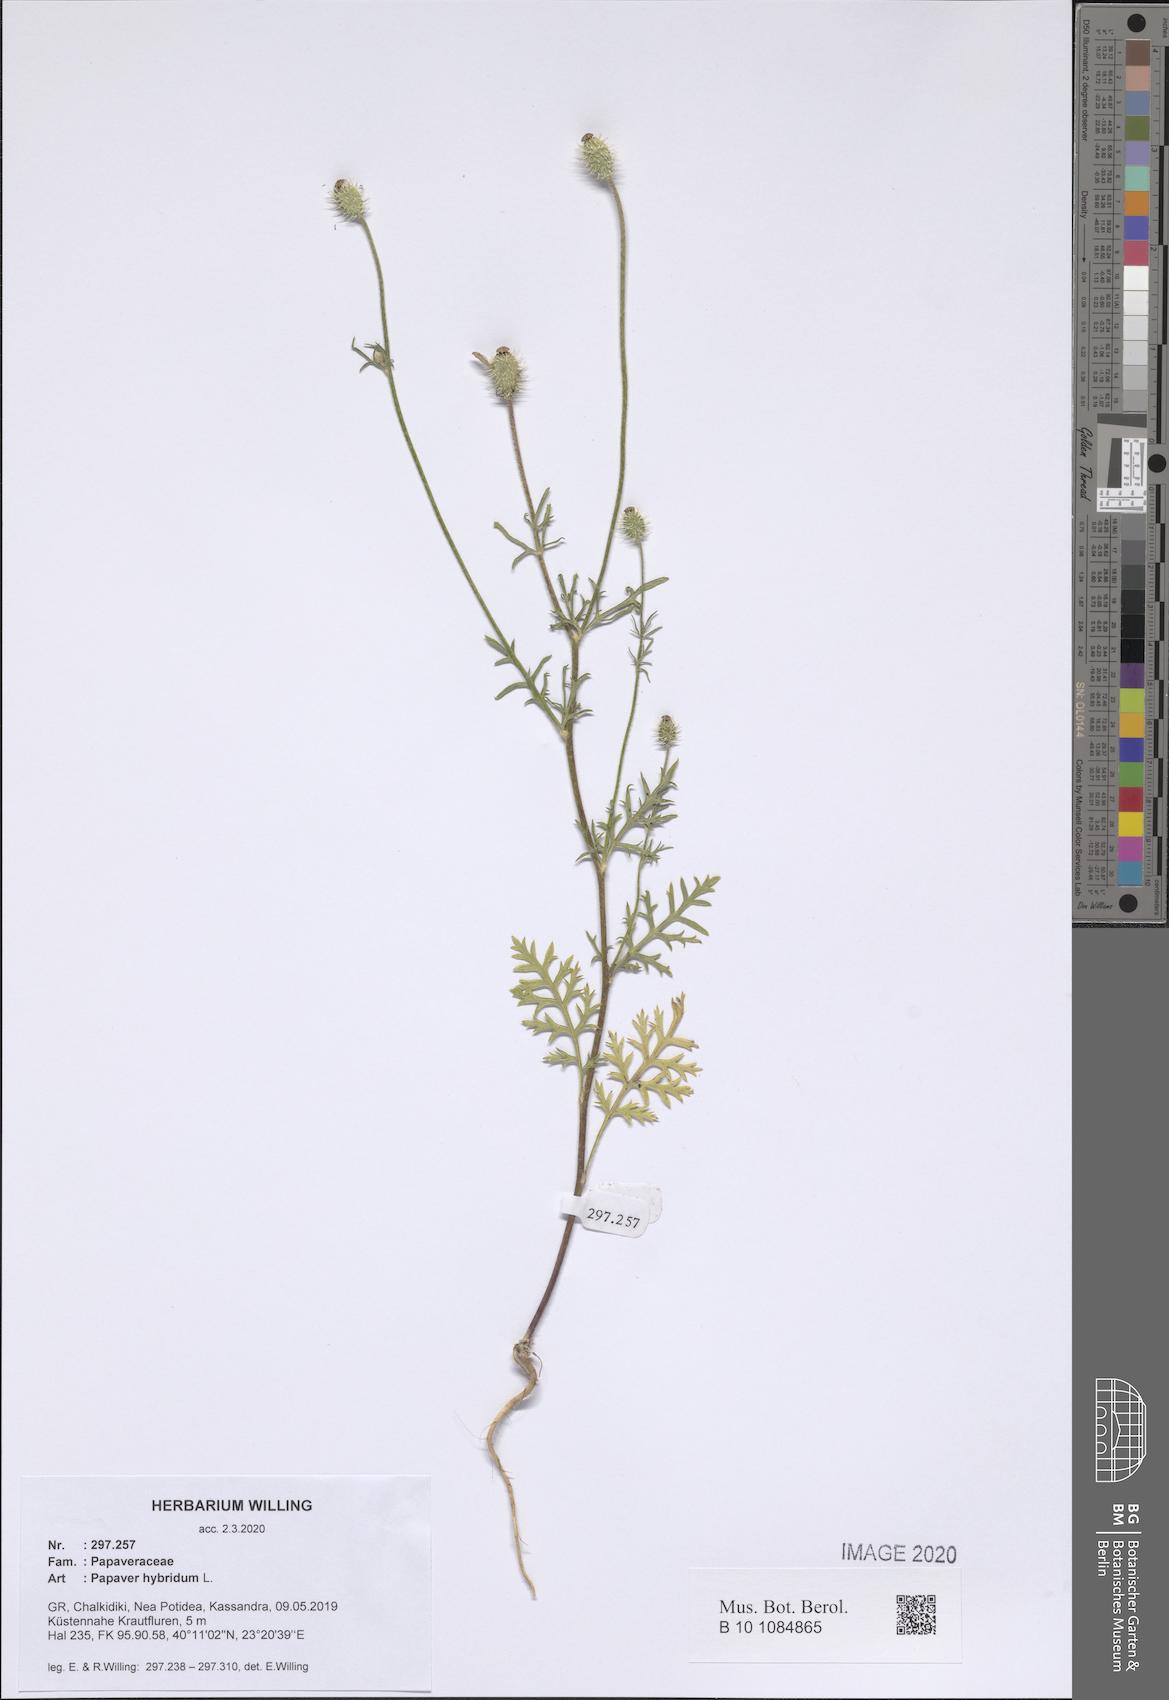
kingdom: Plantae
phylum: Tracheophyta
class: Magnoliopsida
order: Ranunculales
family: Papaveraceae
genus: Roemeria
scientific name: Roemeria hispida
